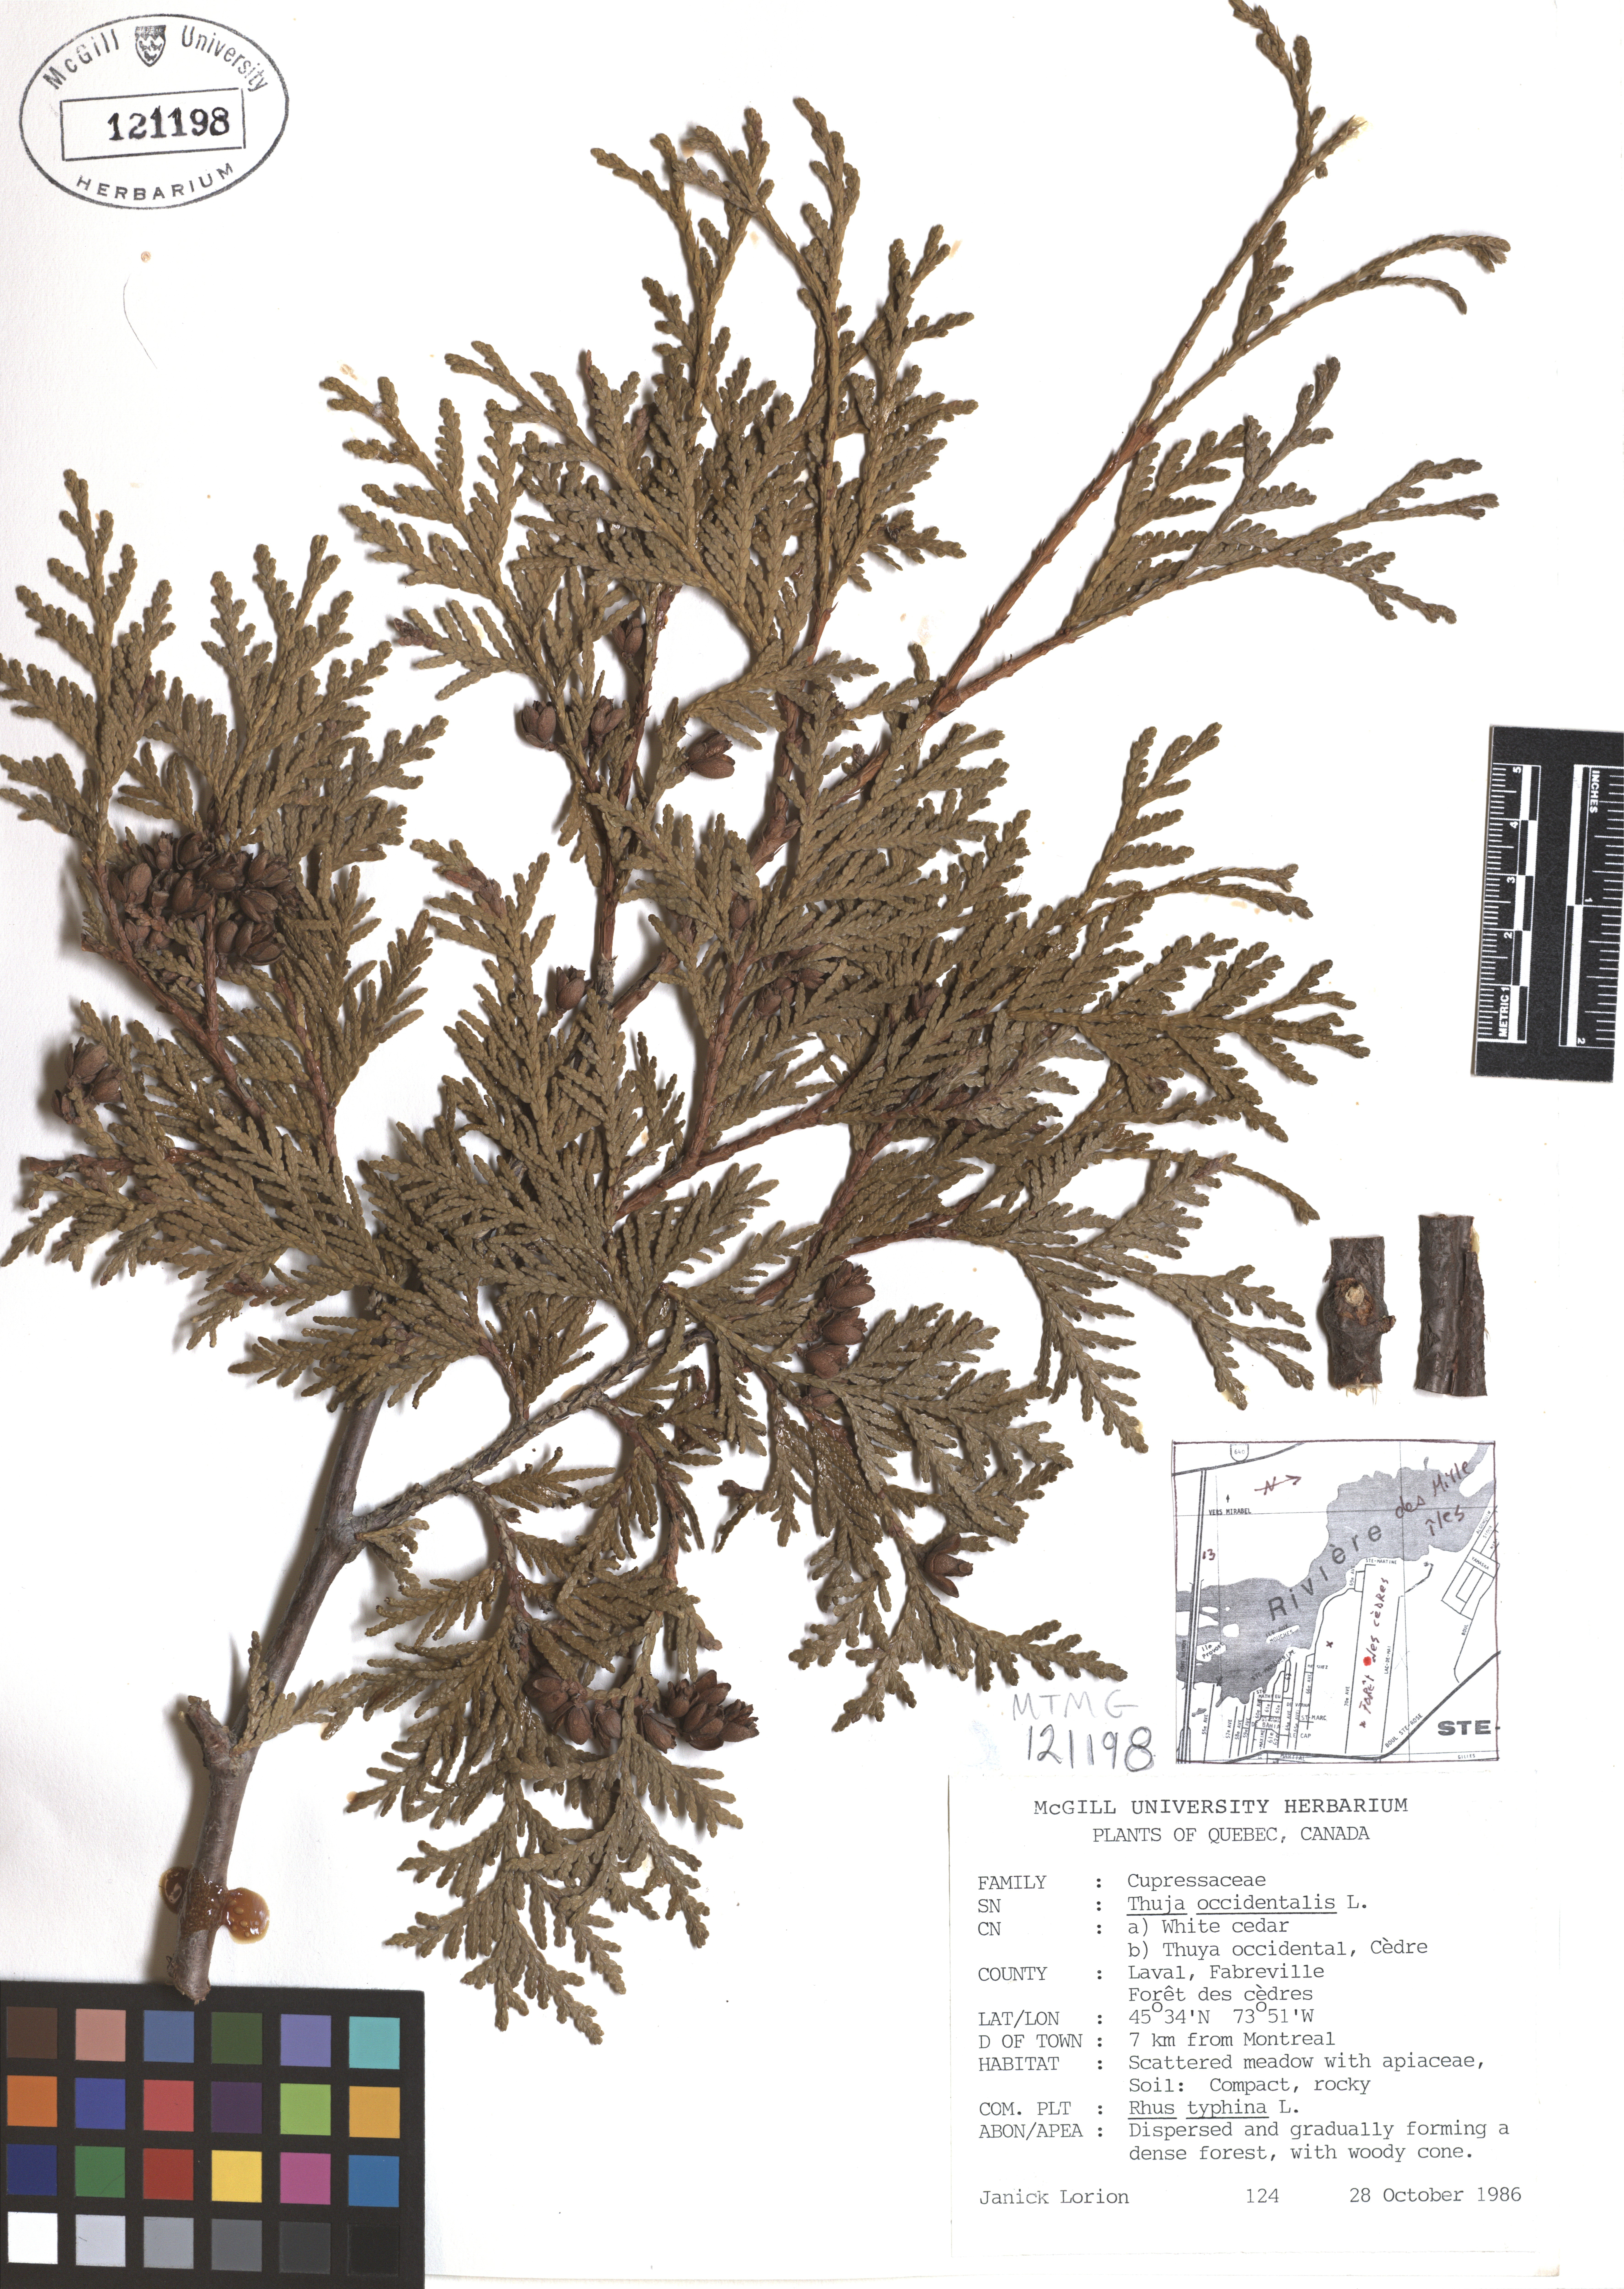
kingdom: Plantae
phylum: Tracheophyta
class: Pinopsida
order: Pinales
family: Cupressaceae
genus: Thuja
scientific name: Thuja occidentalis
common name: Northern white-cedar
